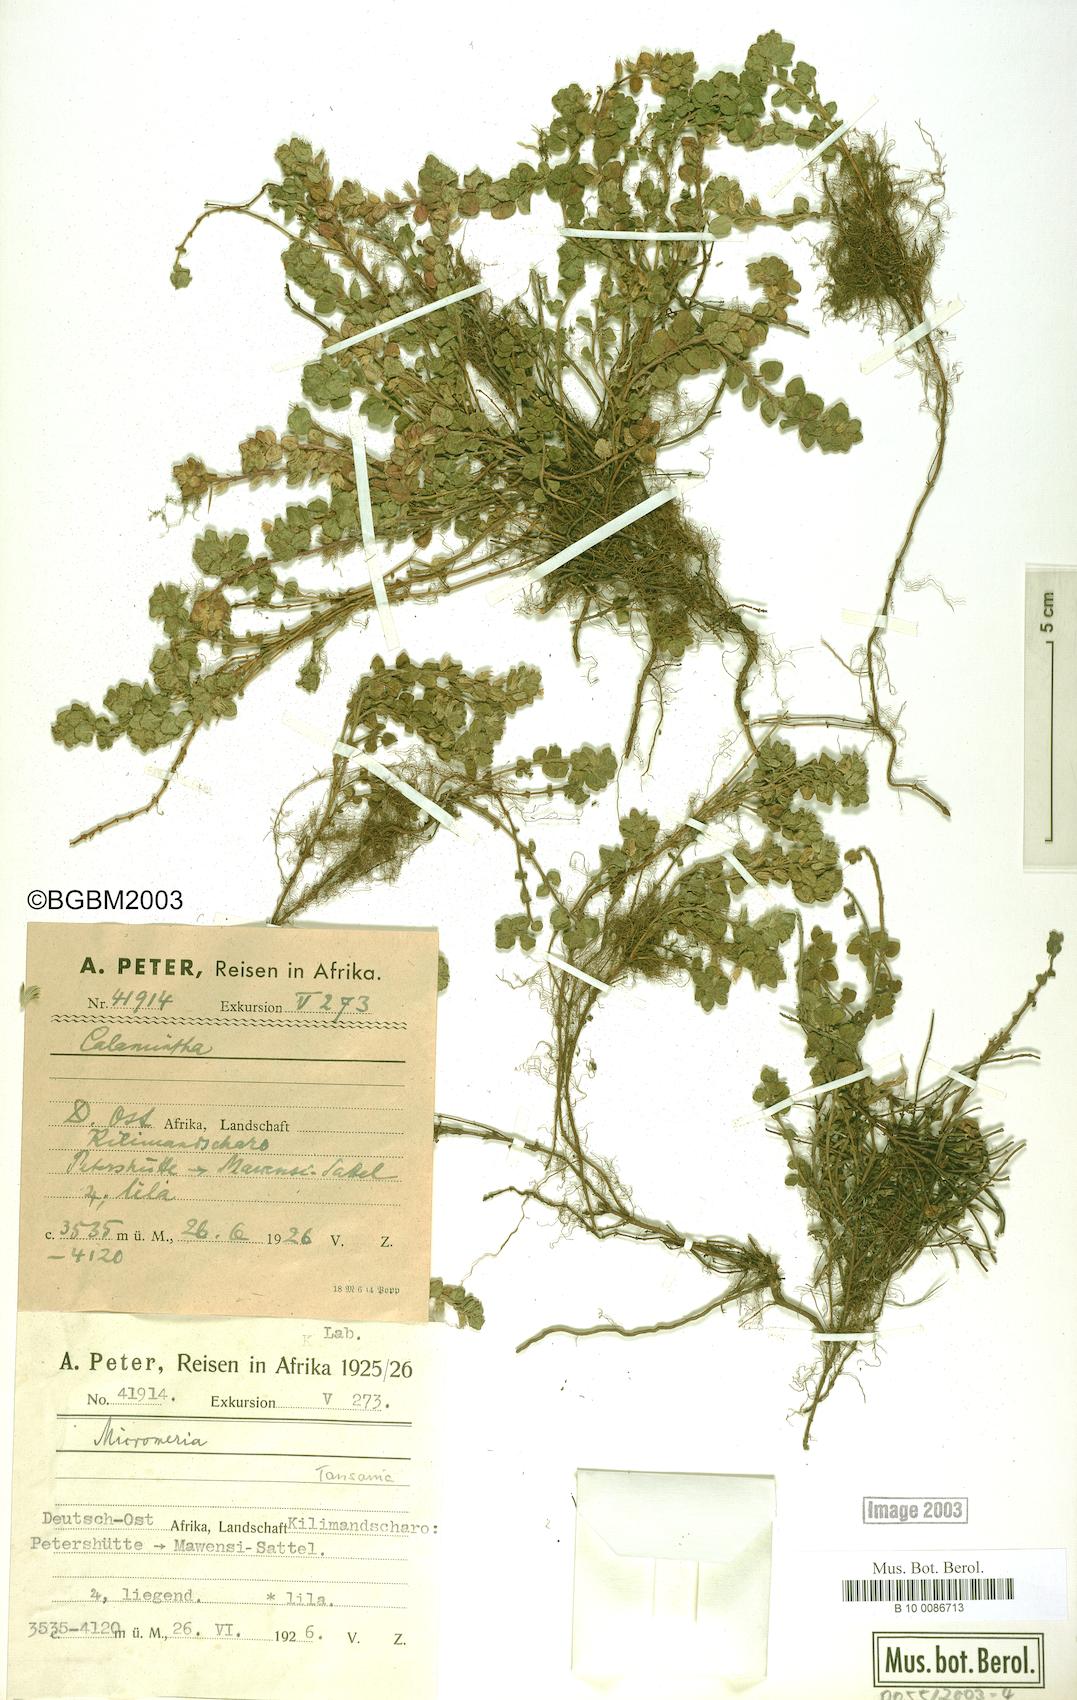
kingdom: Plantae
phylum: Tracheophyta
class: Magnoliopsida
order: Lamiales
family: Lamiaceae
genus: Micromeria
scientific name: Micromeria
